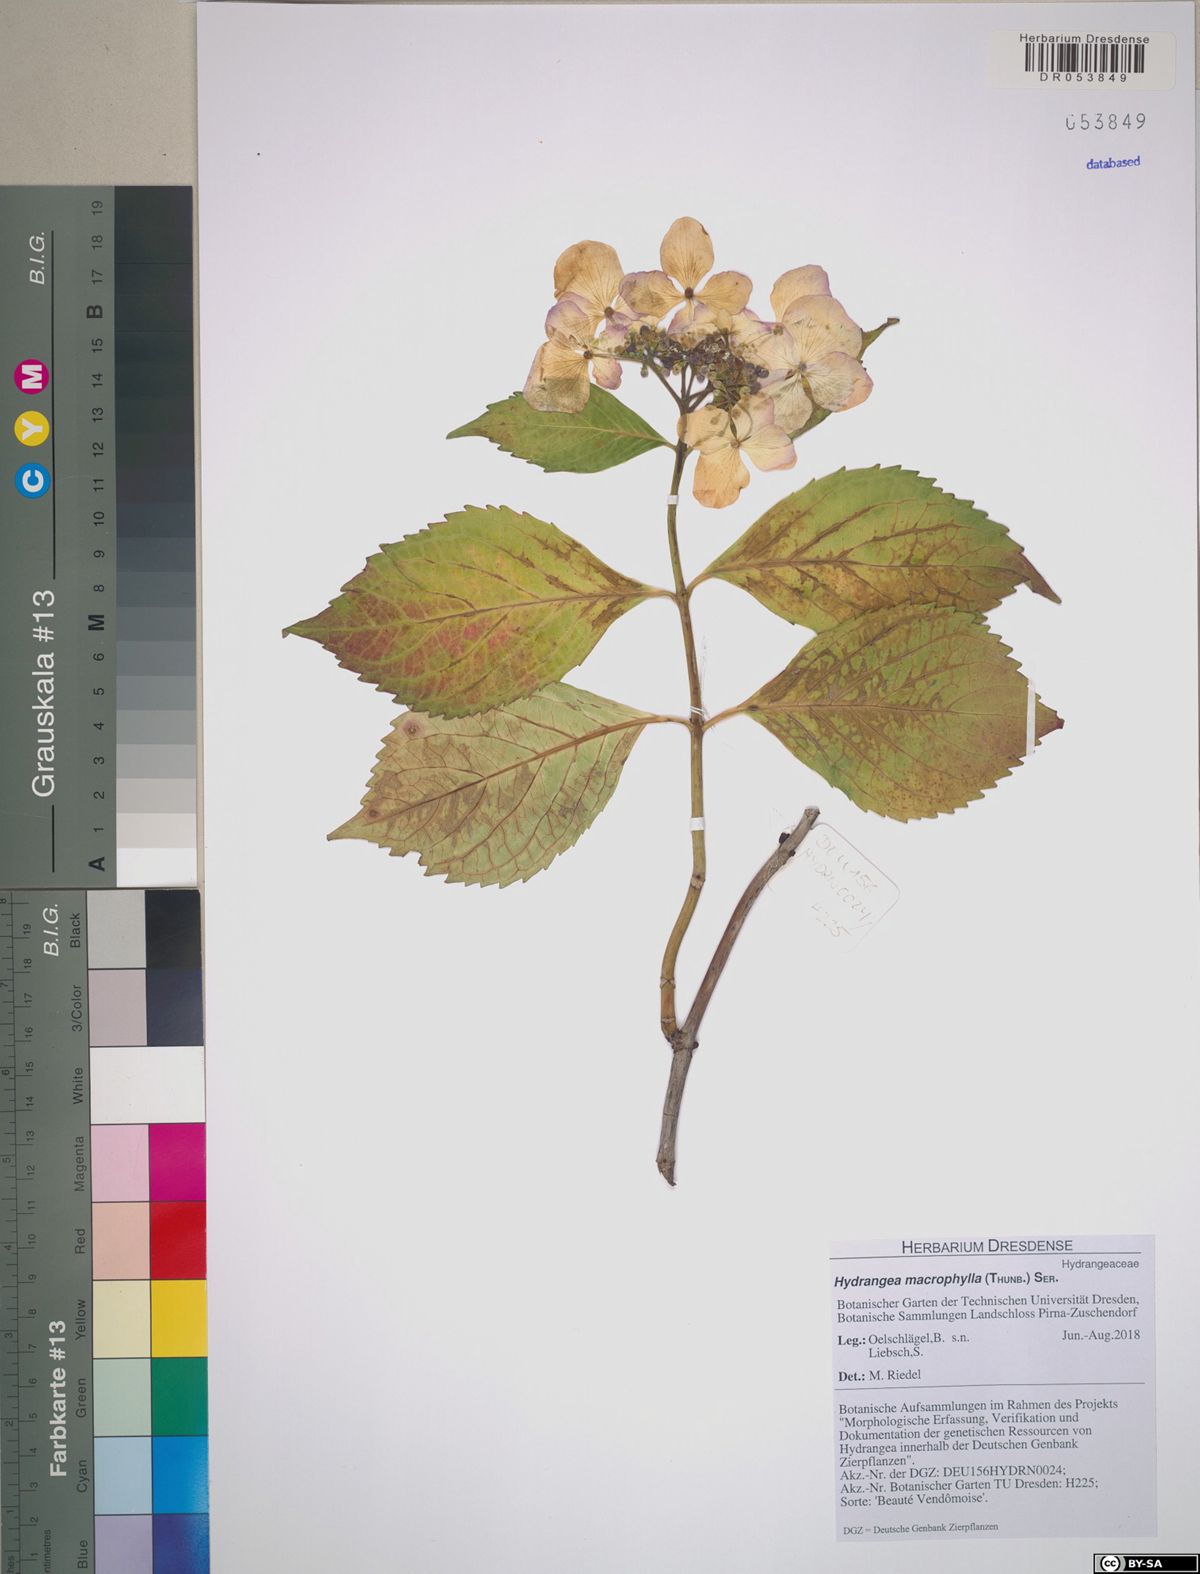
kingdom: Plantae
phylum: Tracheophyta
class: Magnoliopsida
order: Cornales
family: Hydrangeaceae
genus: Hydrangea
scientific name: Hydrangea macrophylla
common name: Hydrangea
